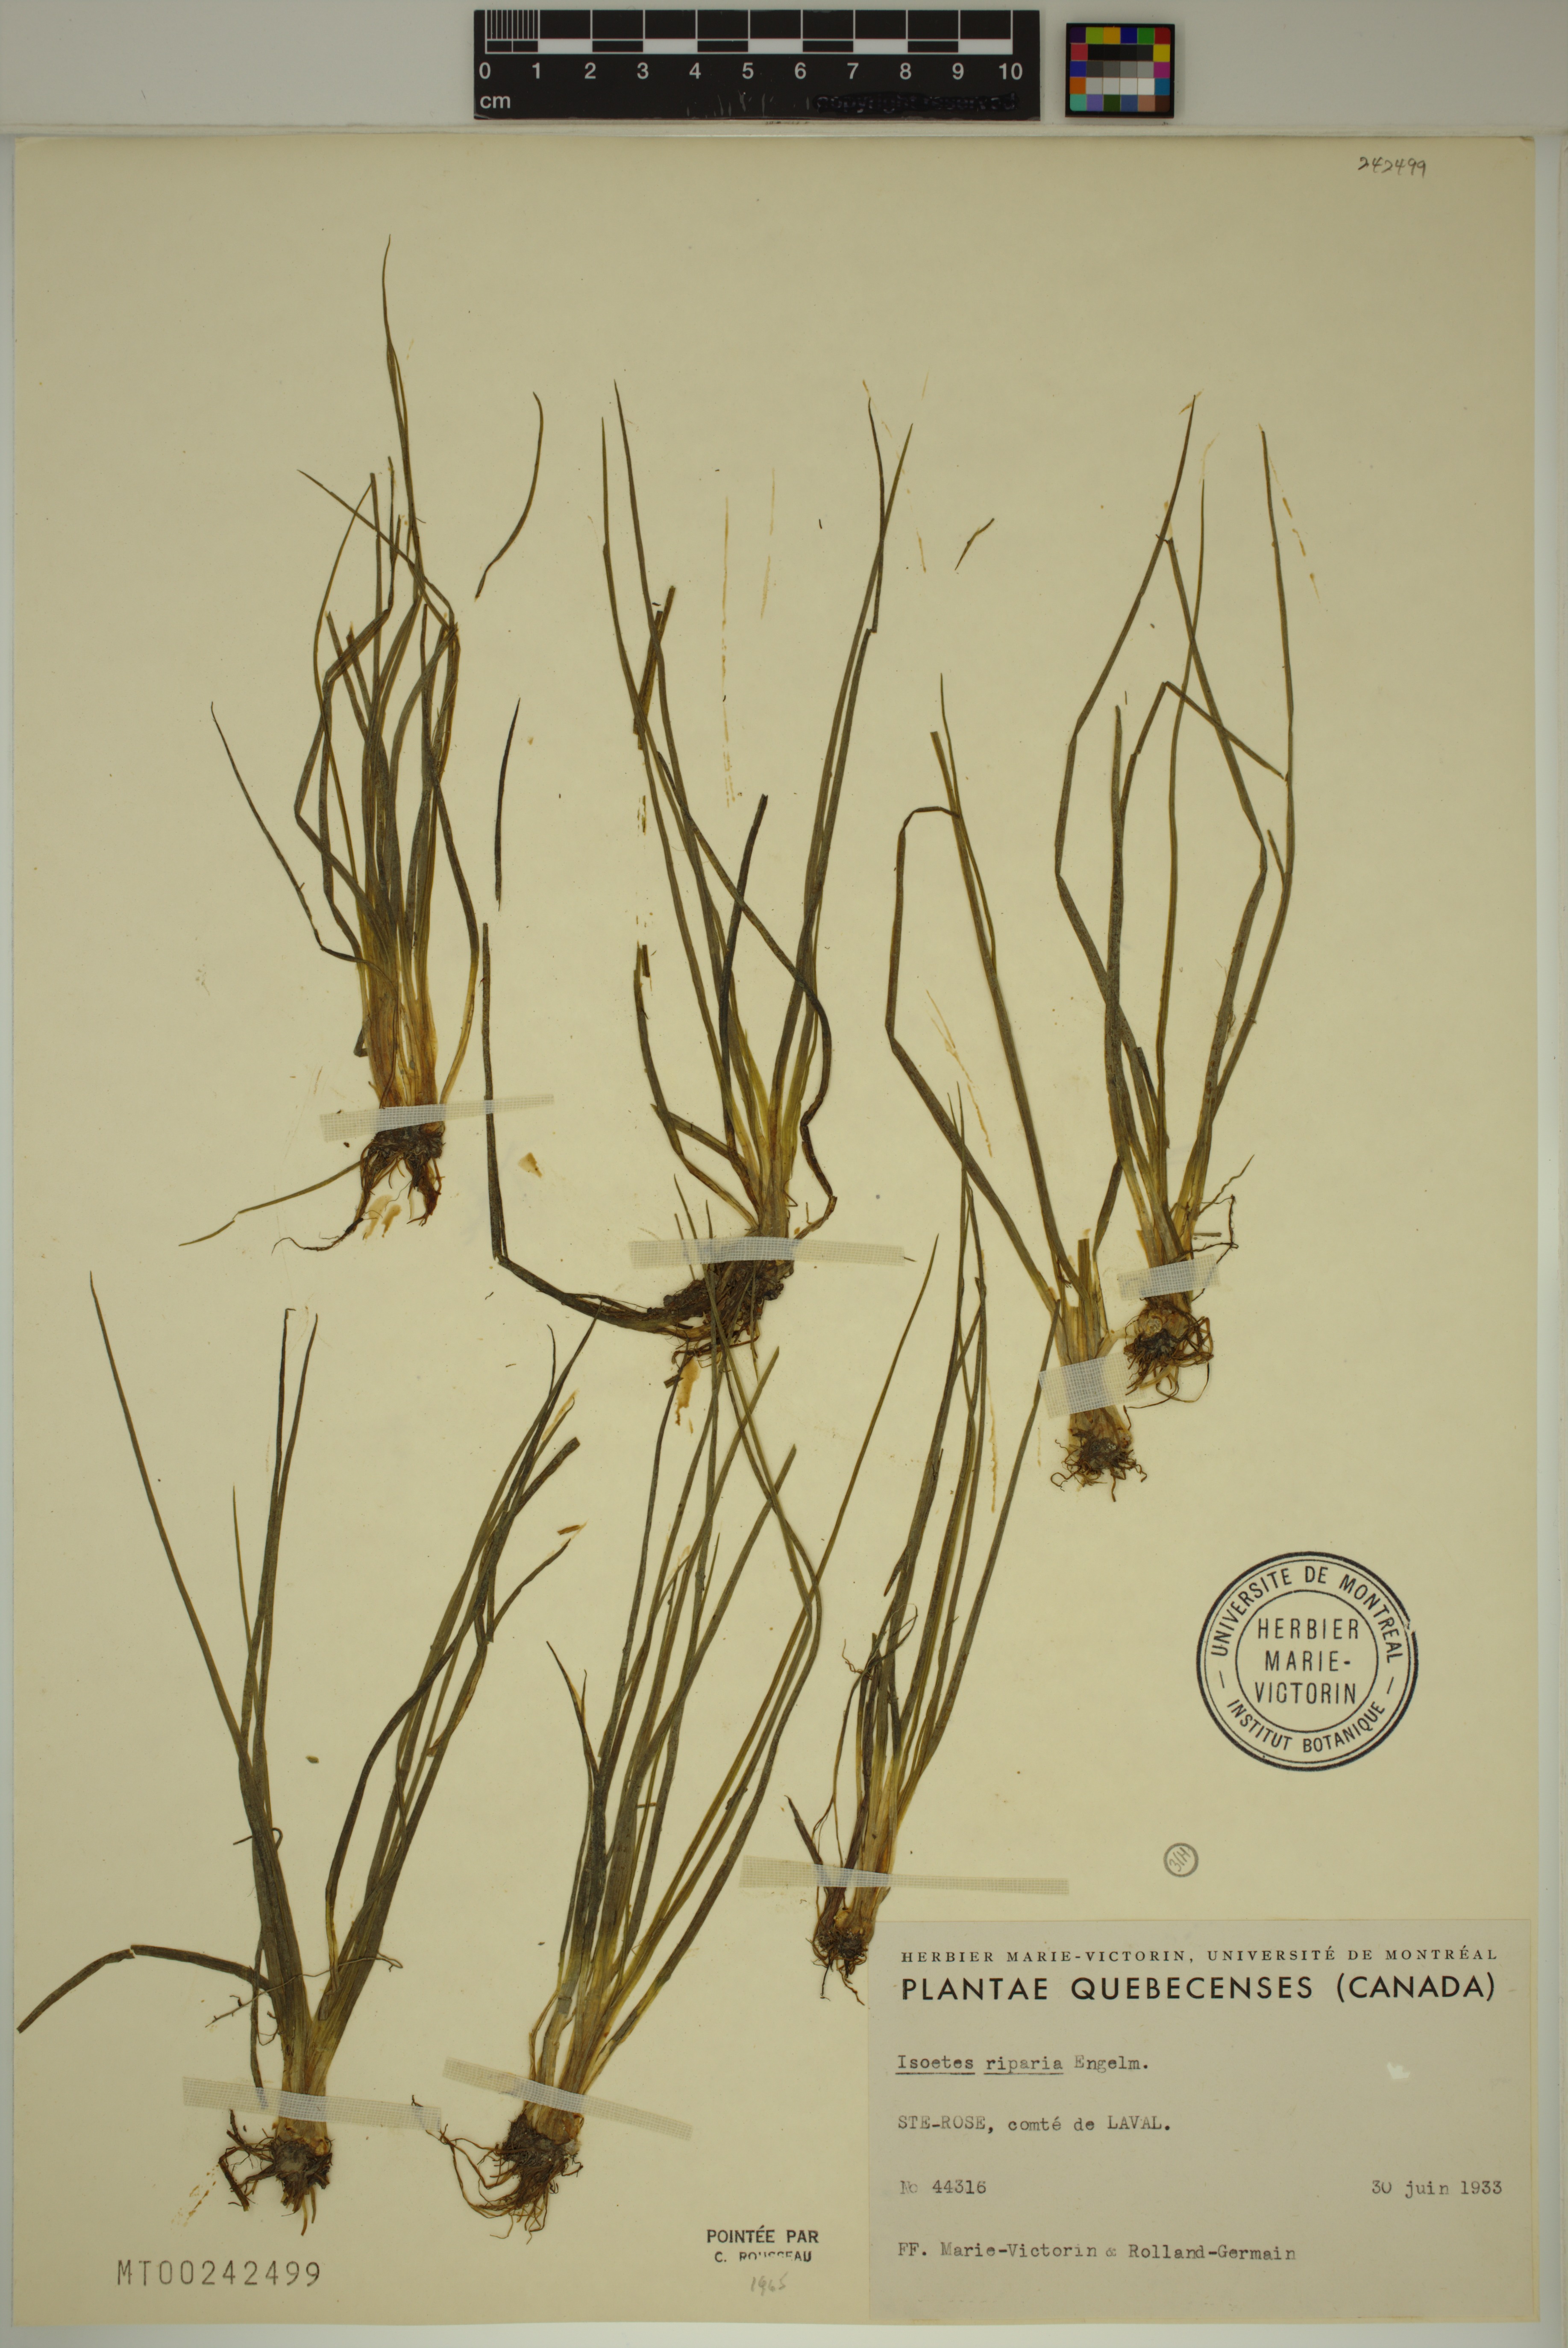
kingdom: Plantae
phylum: Tracheophyta
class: Lycopodiopsida
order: Isoetales
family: Isoetaceae
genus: Isoetes
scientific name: Isoetes septentrionalis
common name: Northern quillwort
